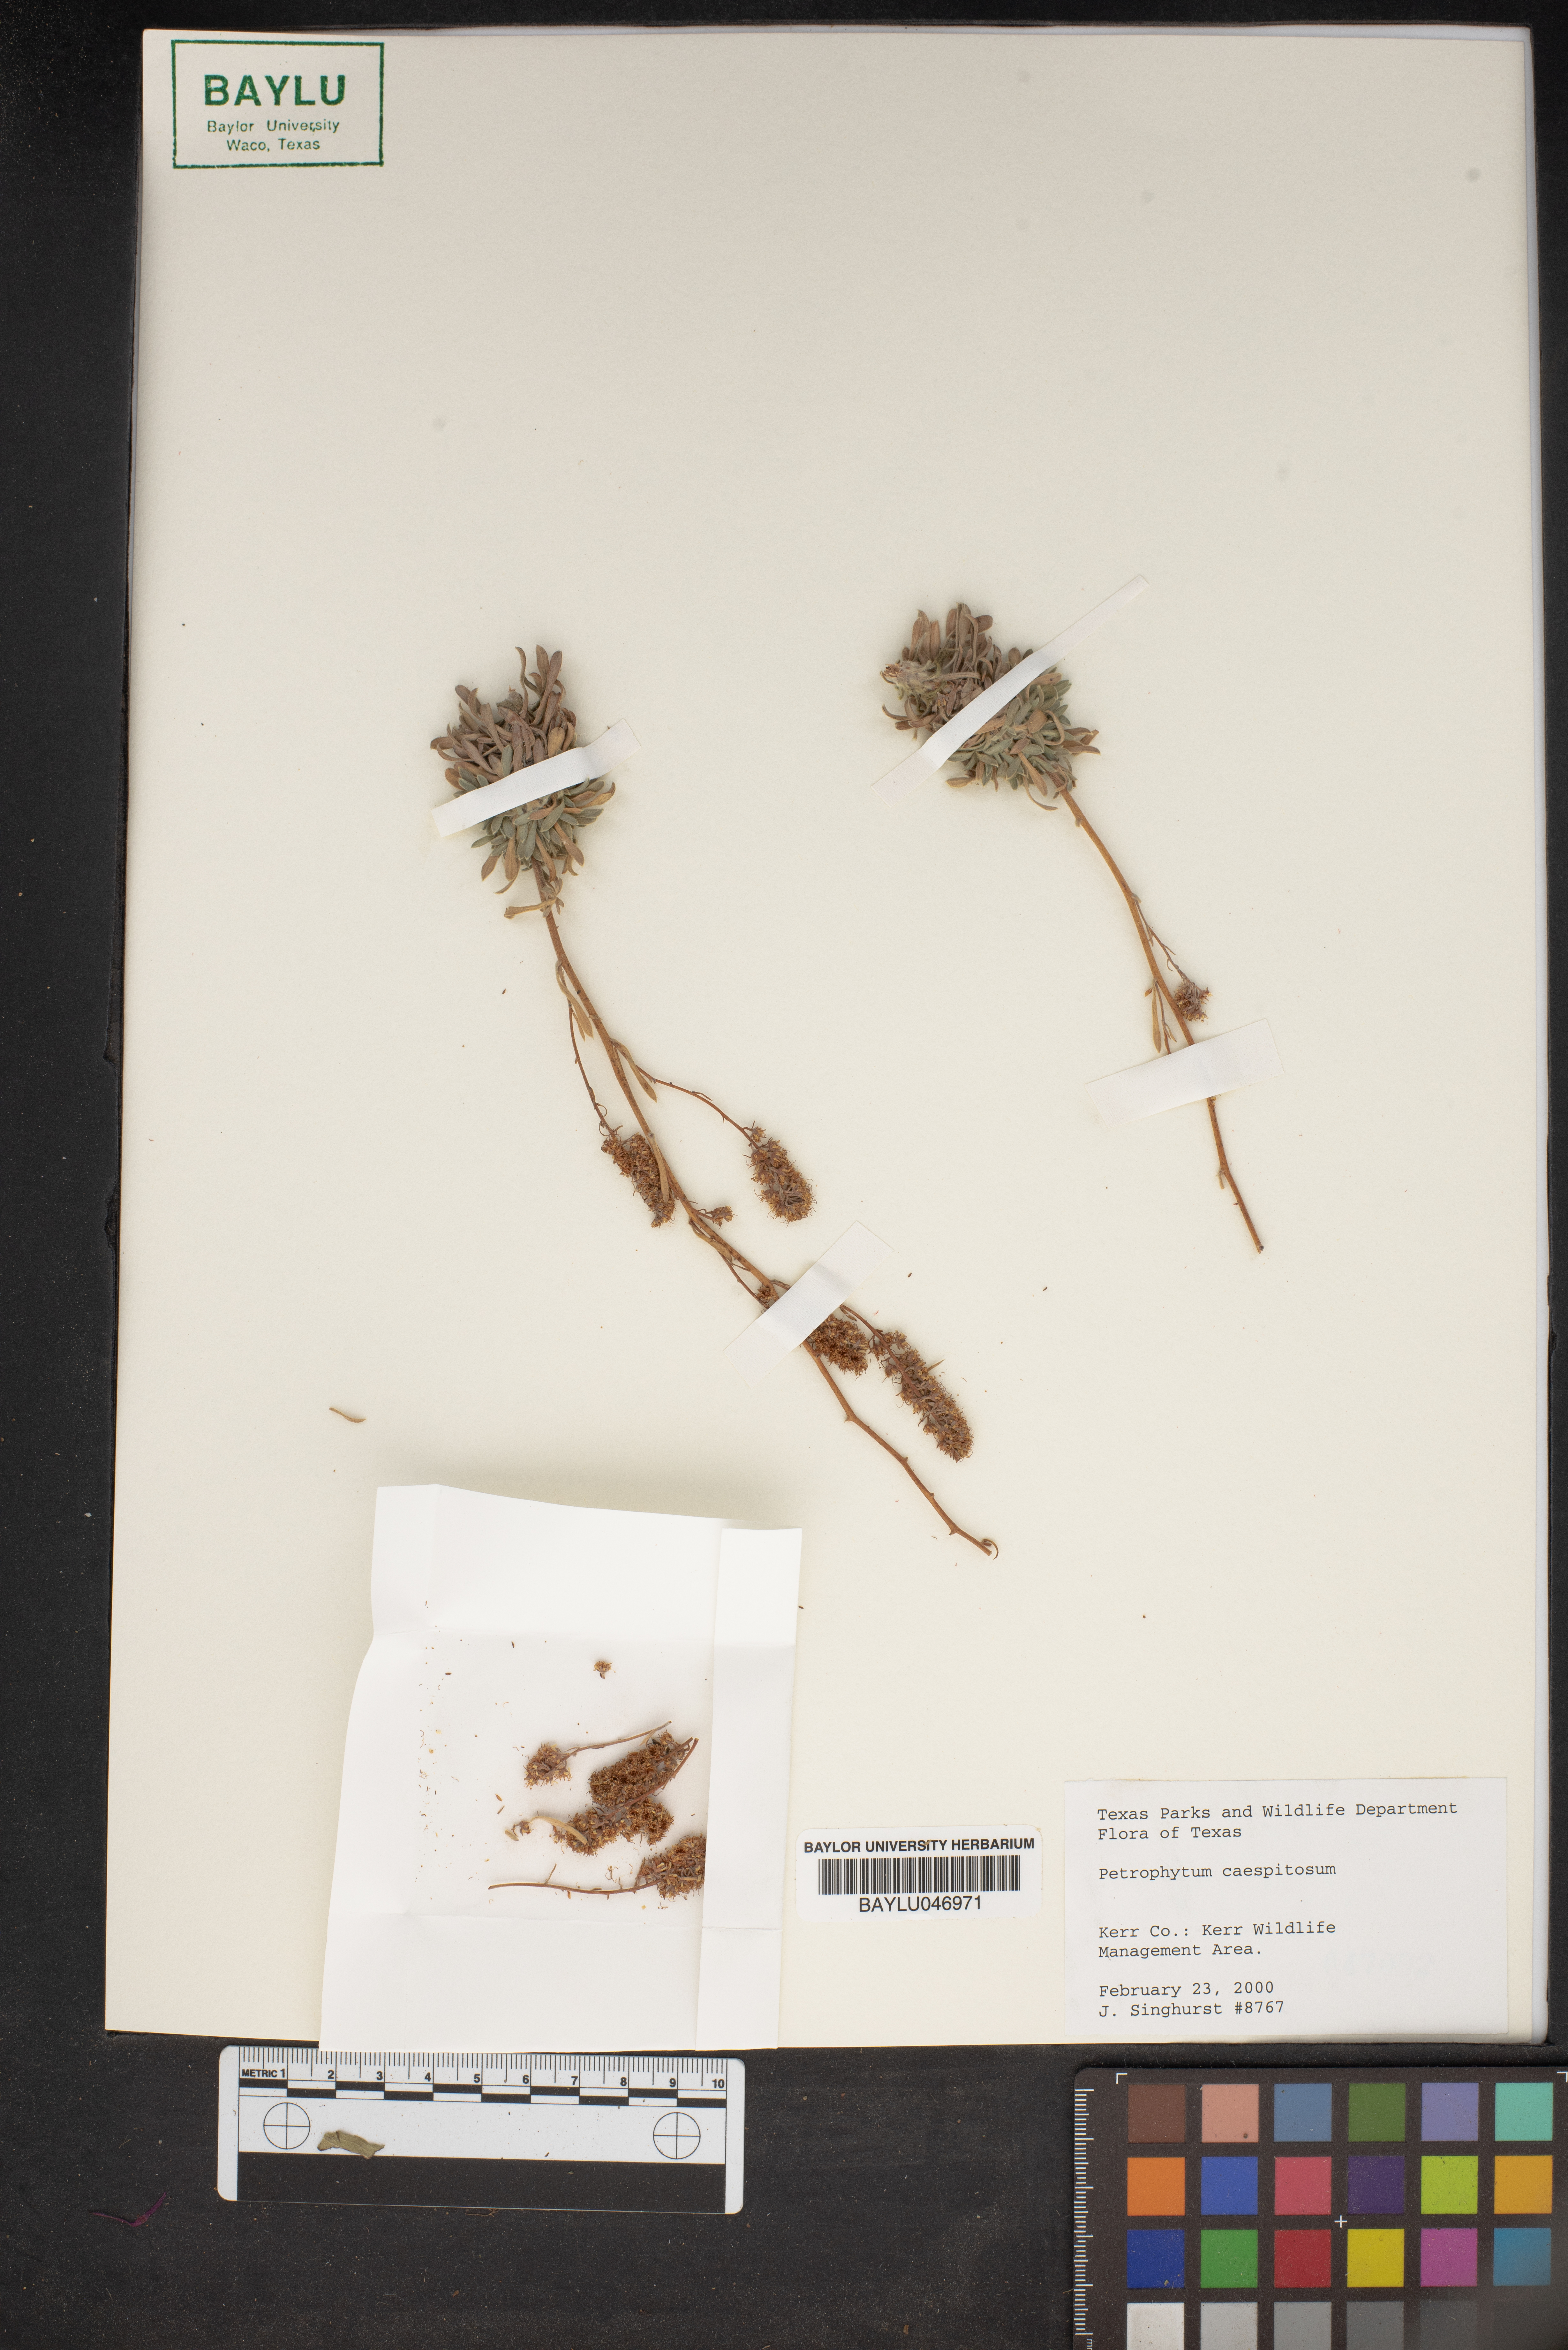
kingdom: Plantae
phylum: Tracheophyta
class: Magnoliopsida
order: Rosales
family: Rosaceae
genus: Petrophytum
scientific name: Petrophytum caespitosum
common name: Mat rockspirea
